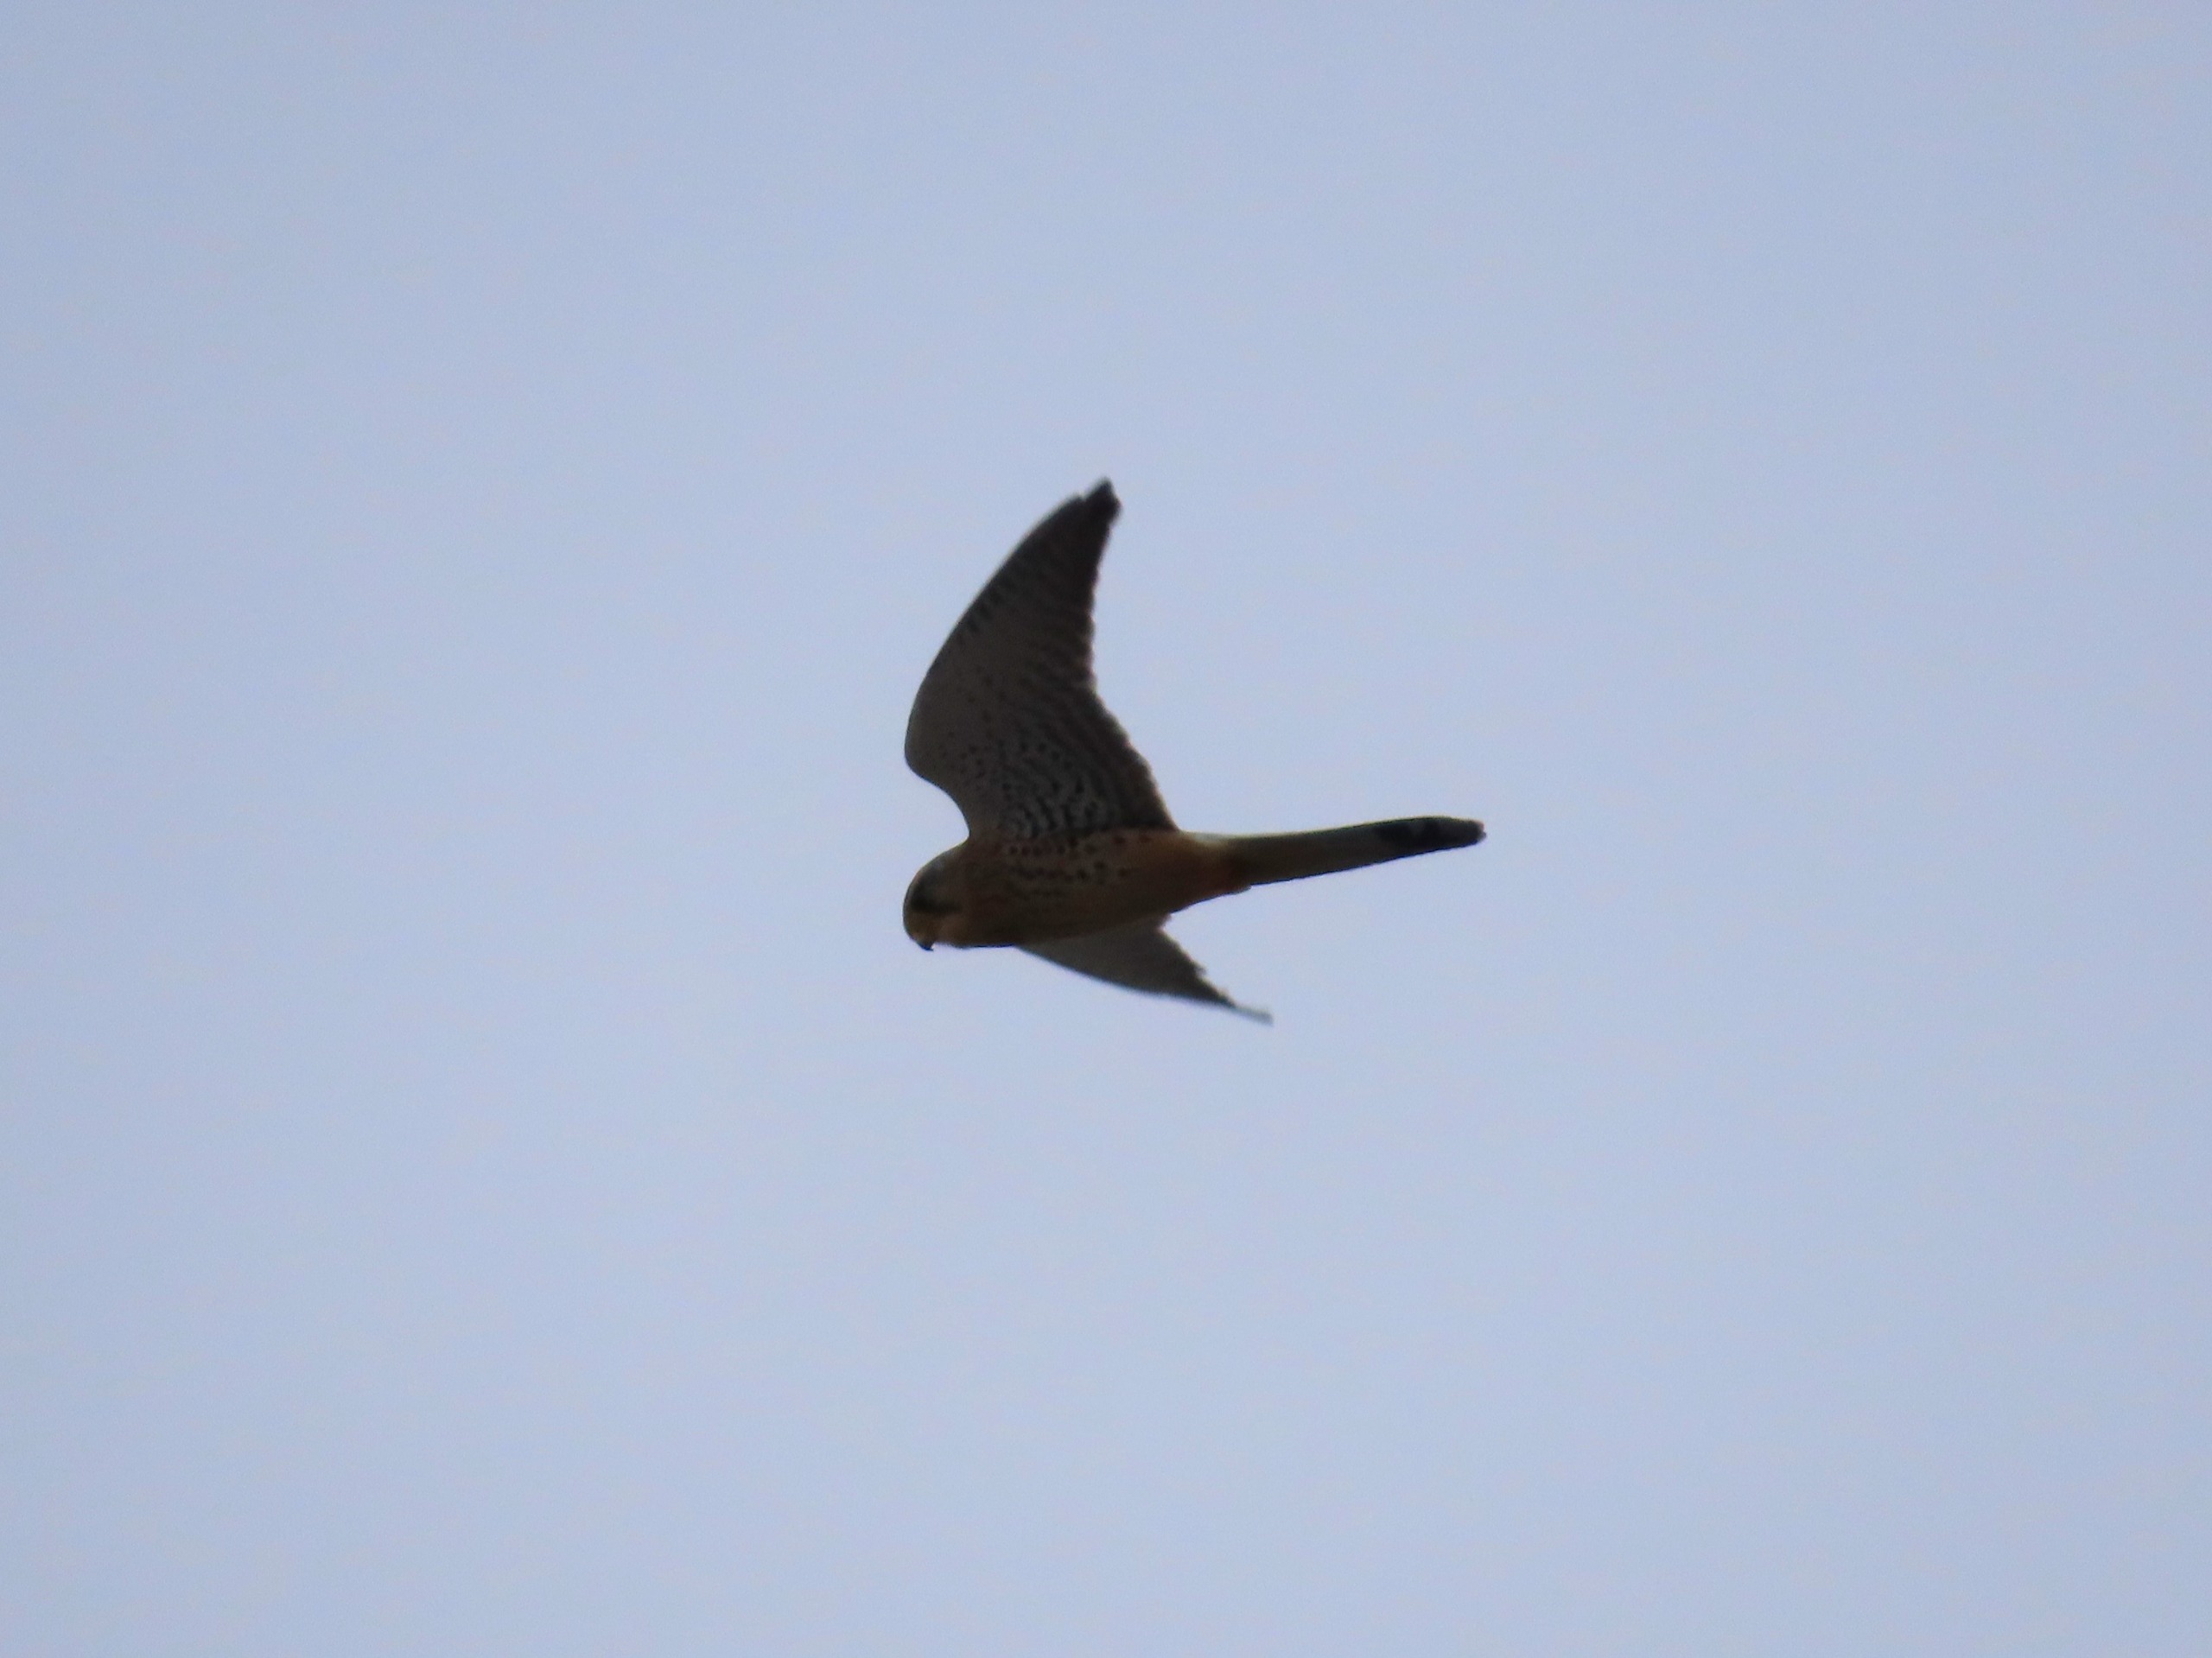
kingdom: Animalia
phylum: Chordata
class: Aves
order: Falconiformes
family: Falconidae
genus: Falco
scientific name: Falco tinnunculus
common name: Tårnfalk
